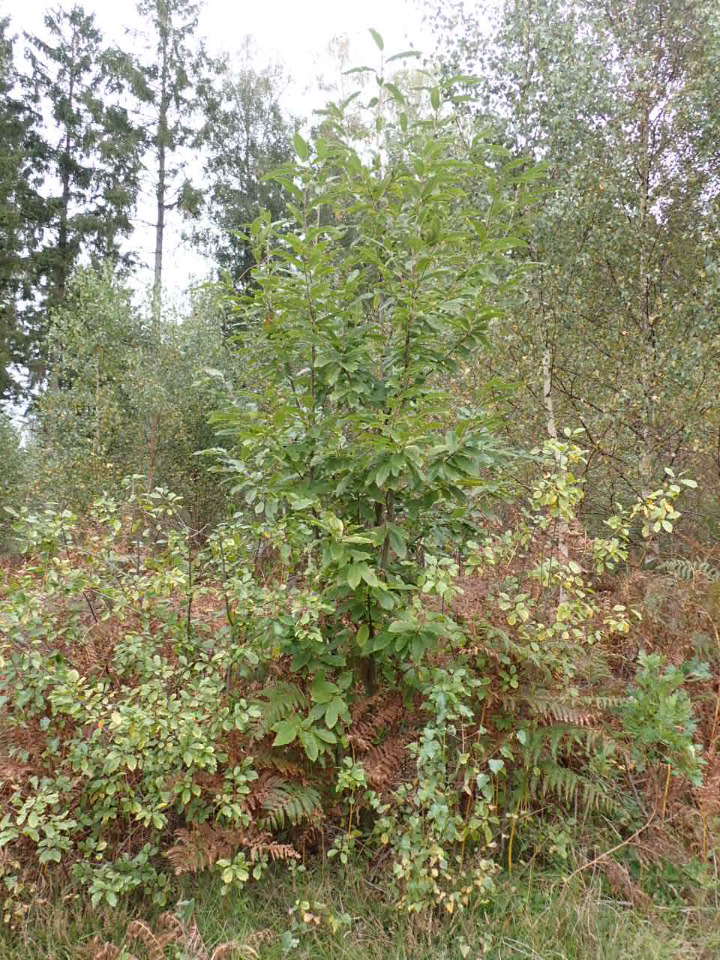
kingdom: Plantae
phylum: Tracheophyta
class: Magnoliopsida
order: Fagales
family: Fagaceae
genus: Castanea
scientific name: Castanea sativa
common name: Ægte kastanie
